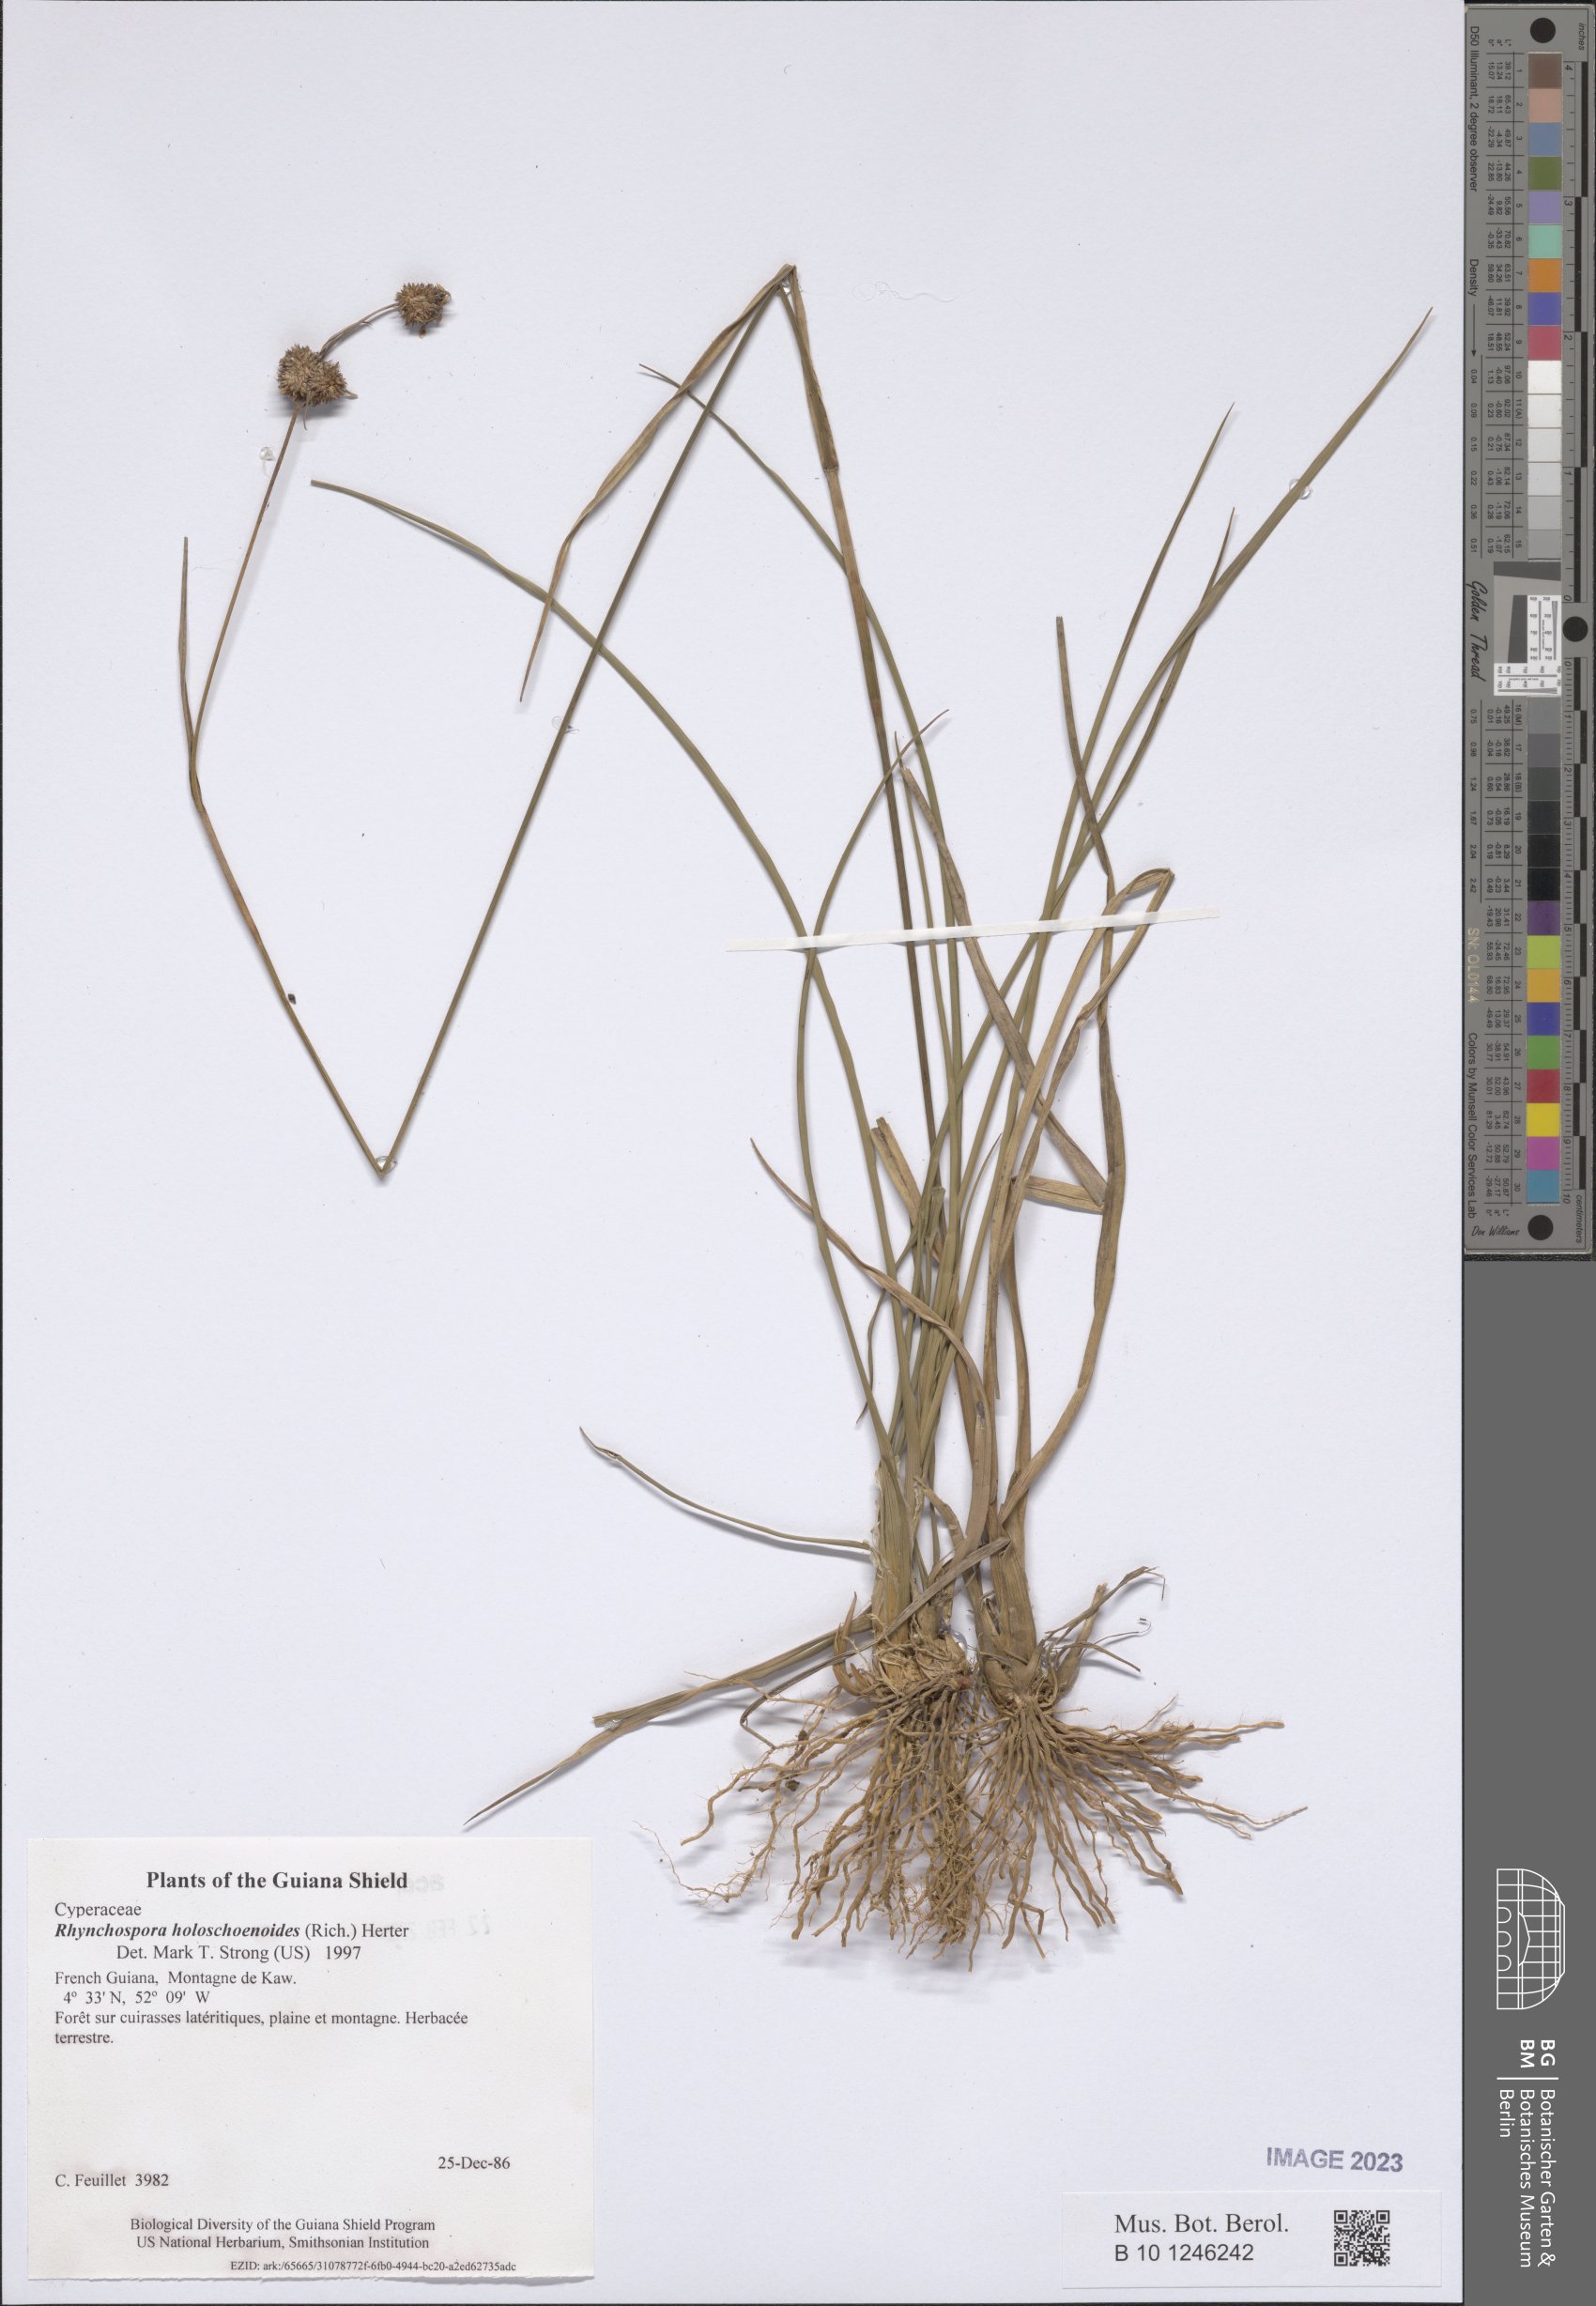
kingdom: Plantae
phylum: Tracheophyta
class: Liliopsida
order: Poales
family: Cyperaceae
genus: Rhynchospora
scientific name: Rhynchospora holoschoenoides
